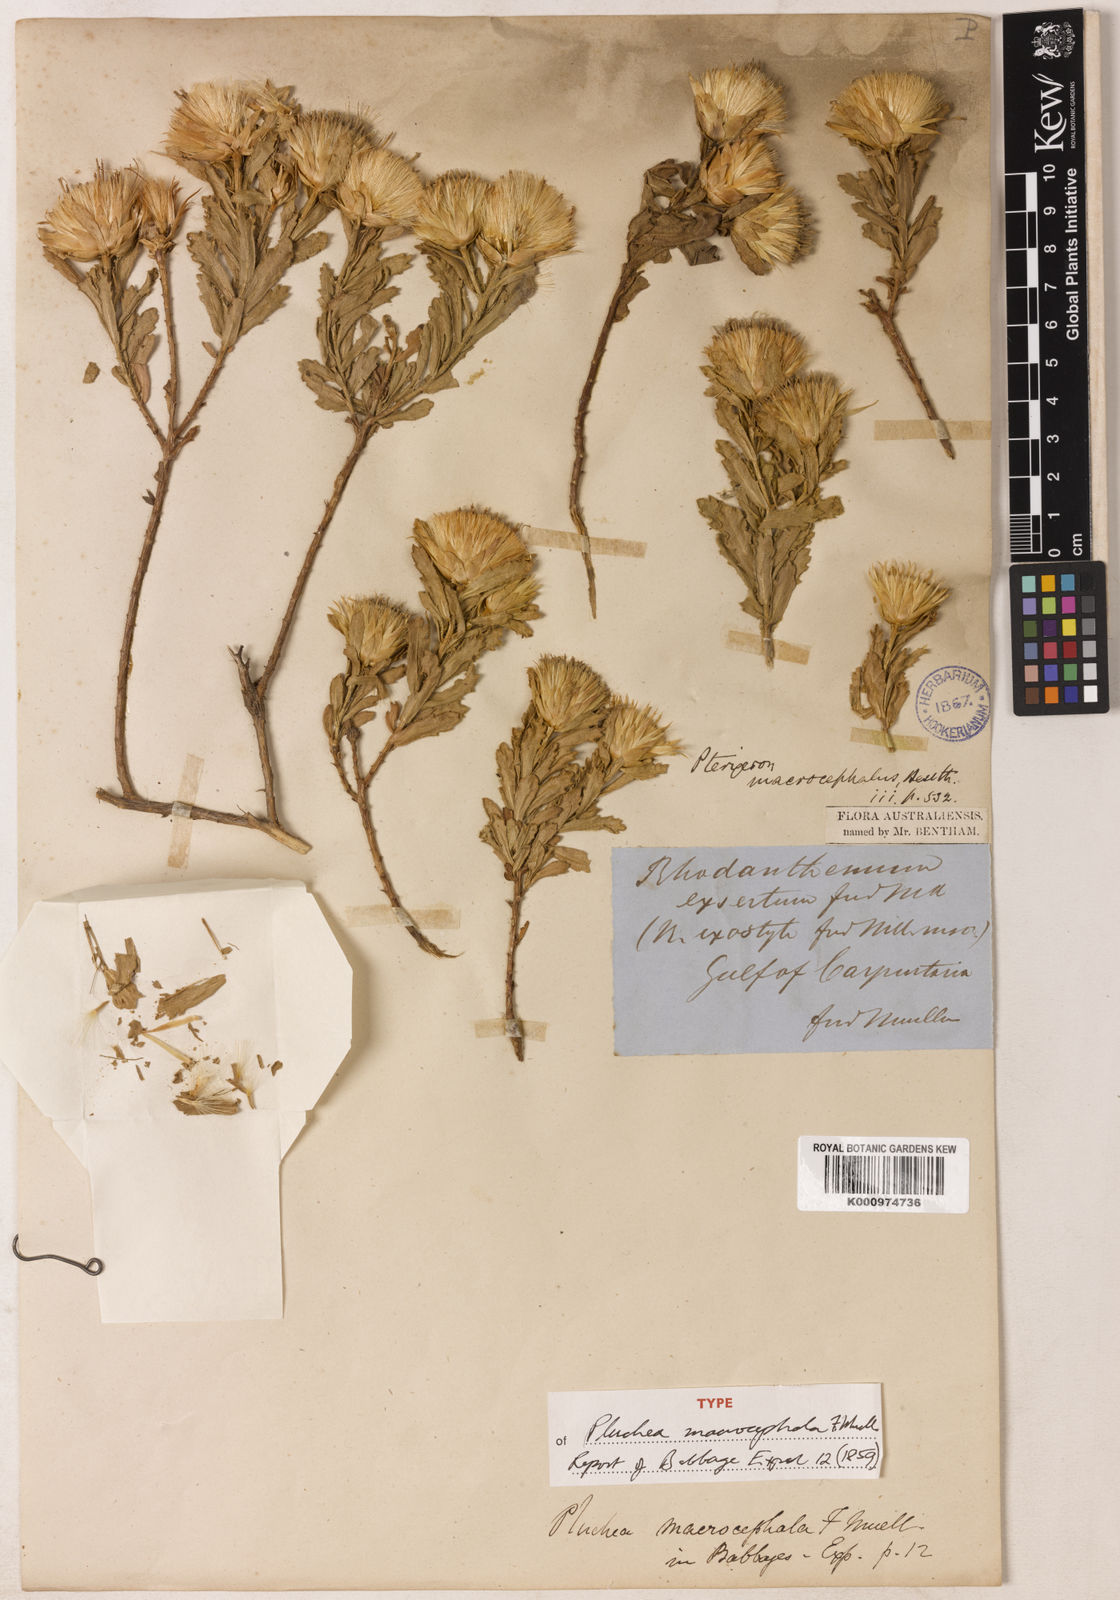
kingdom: Plantae
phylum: Tracheophyta
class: Magnoliopsida
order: Asterales
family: Asteraceae
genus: Streptoglossa
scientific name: Streptoglossa macrocephala
